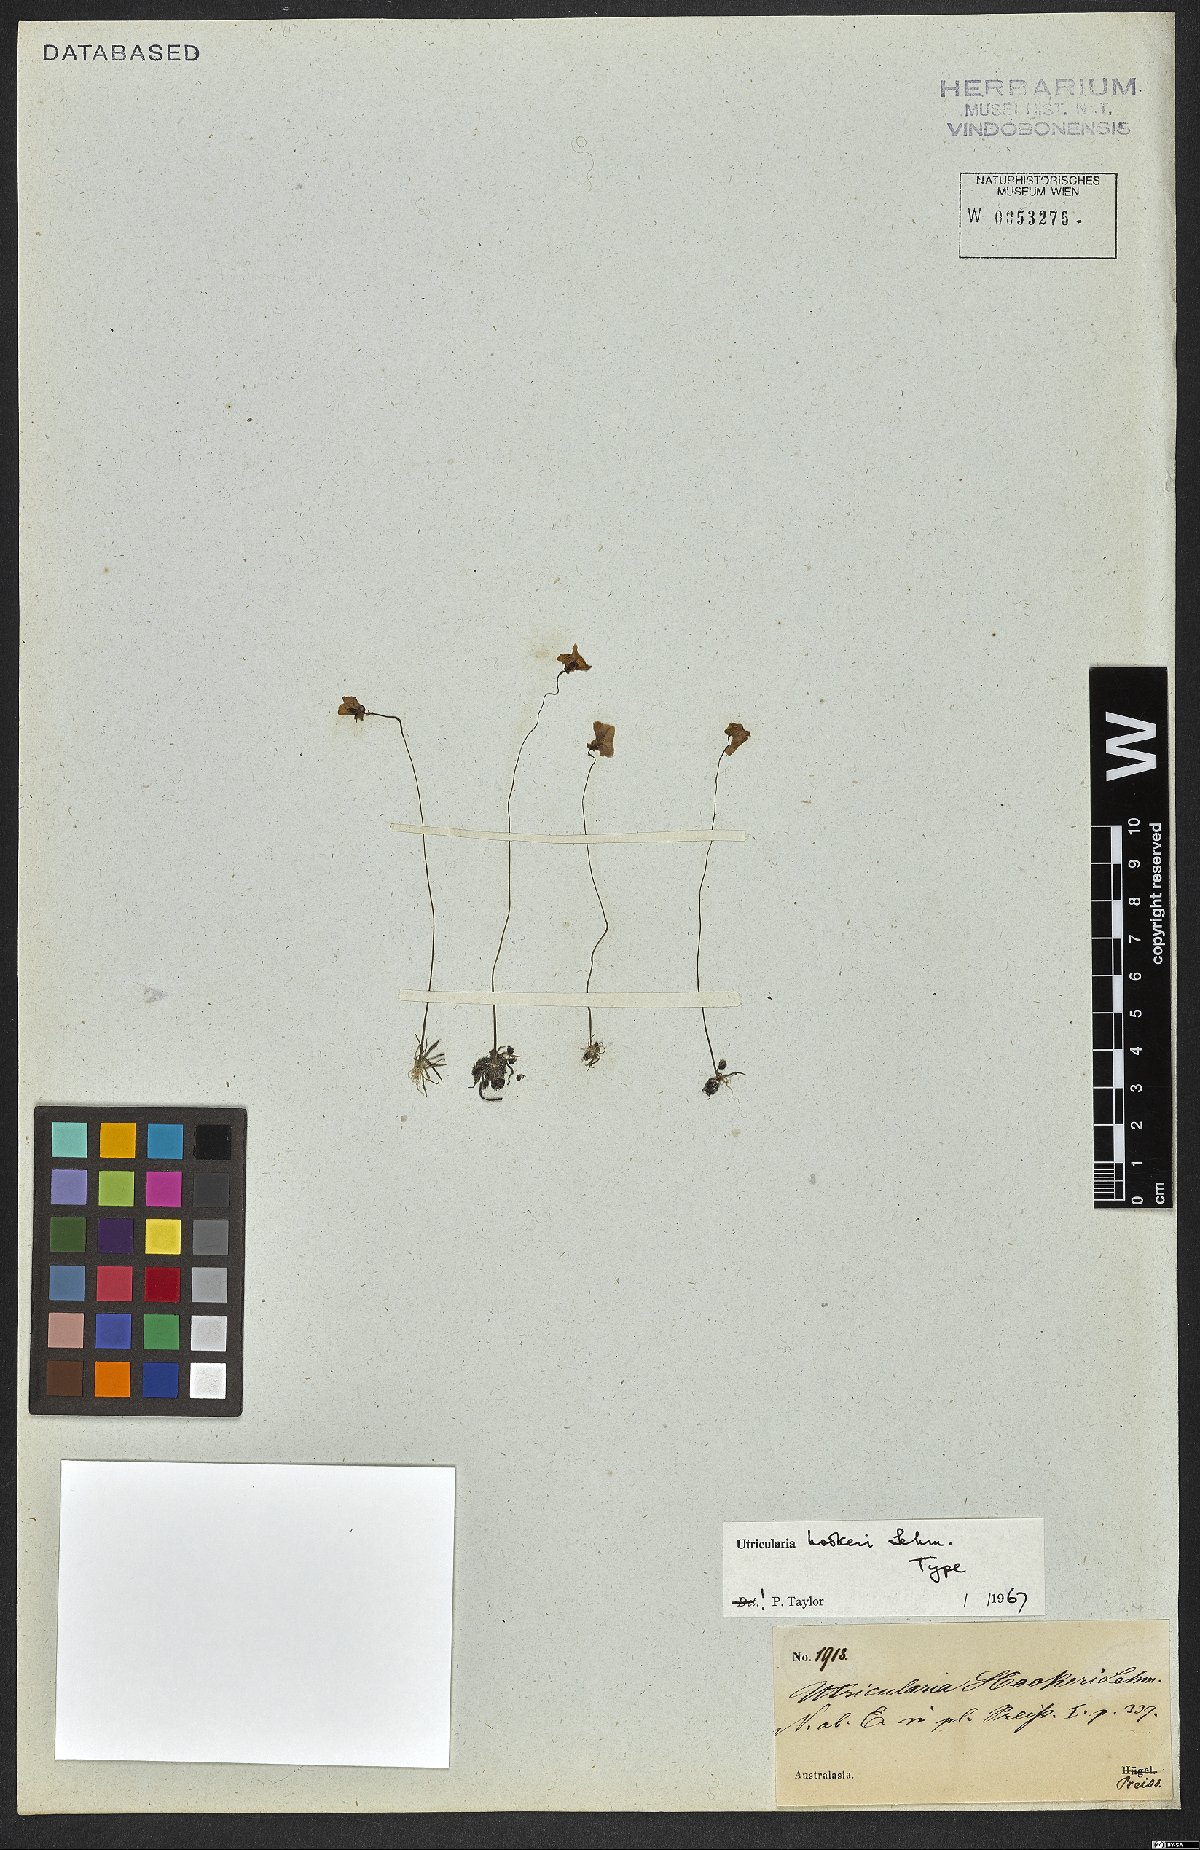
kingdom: Plantae
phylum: Tracheophyta
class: Magnoliopsida
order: Lamiales
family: Lentibulariaceae
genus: Utricularia
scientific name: Utricularia inaequalis
